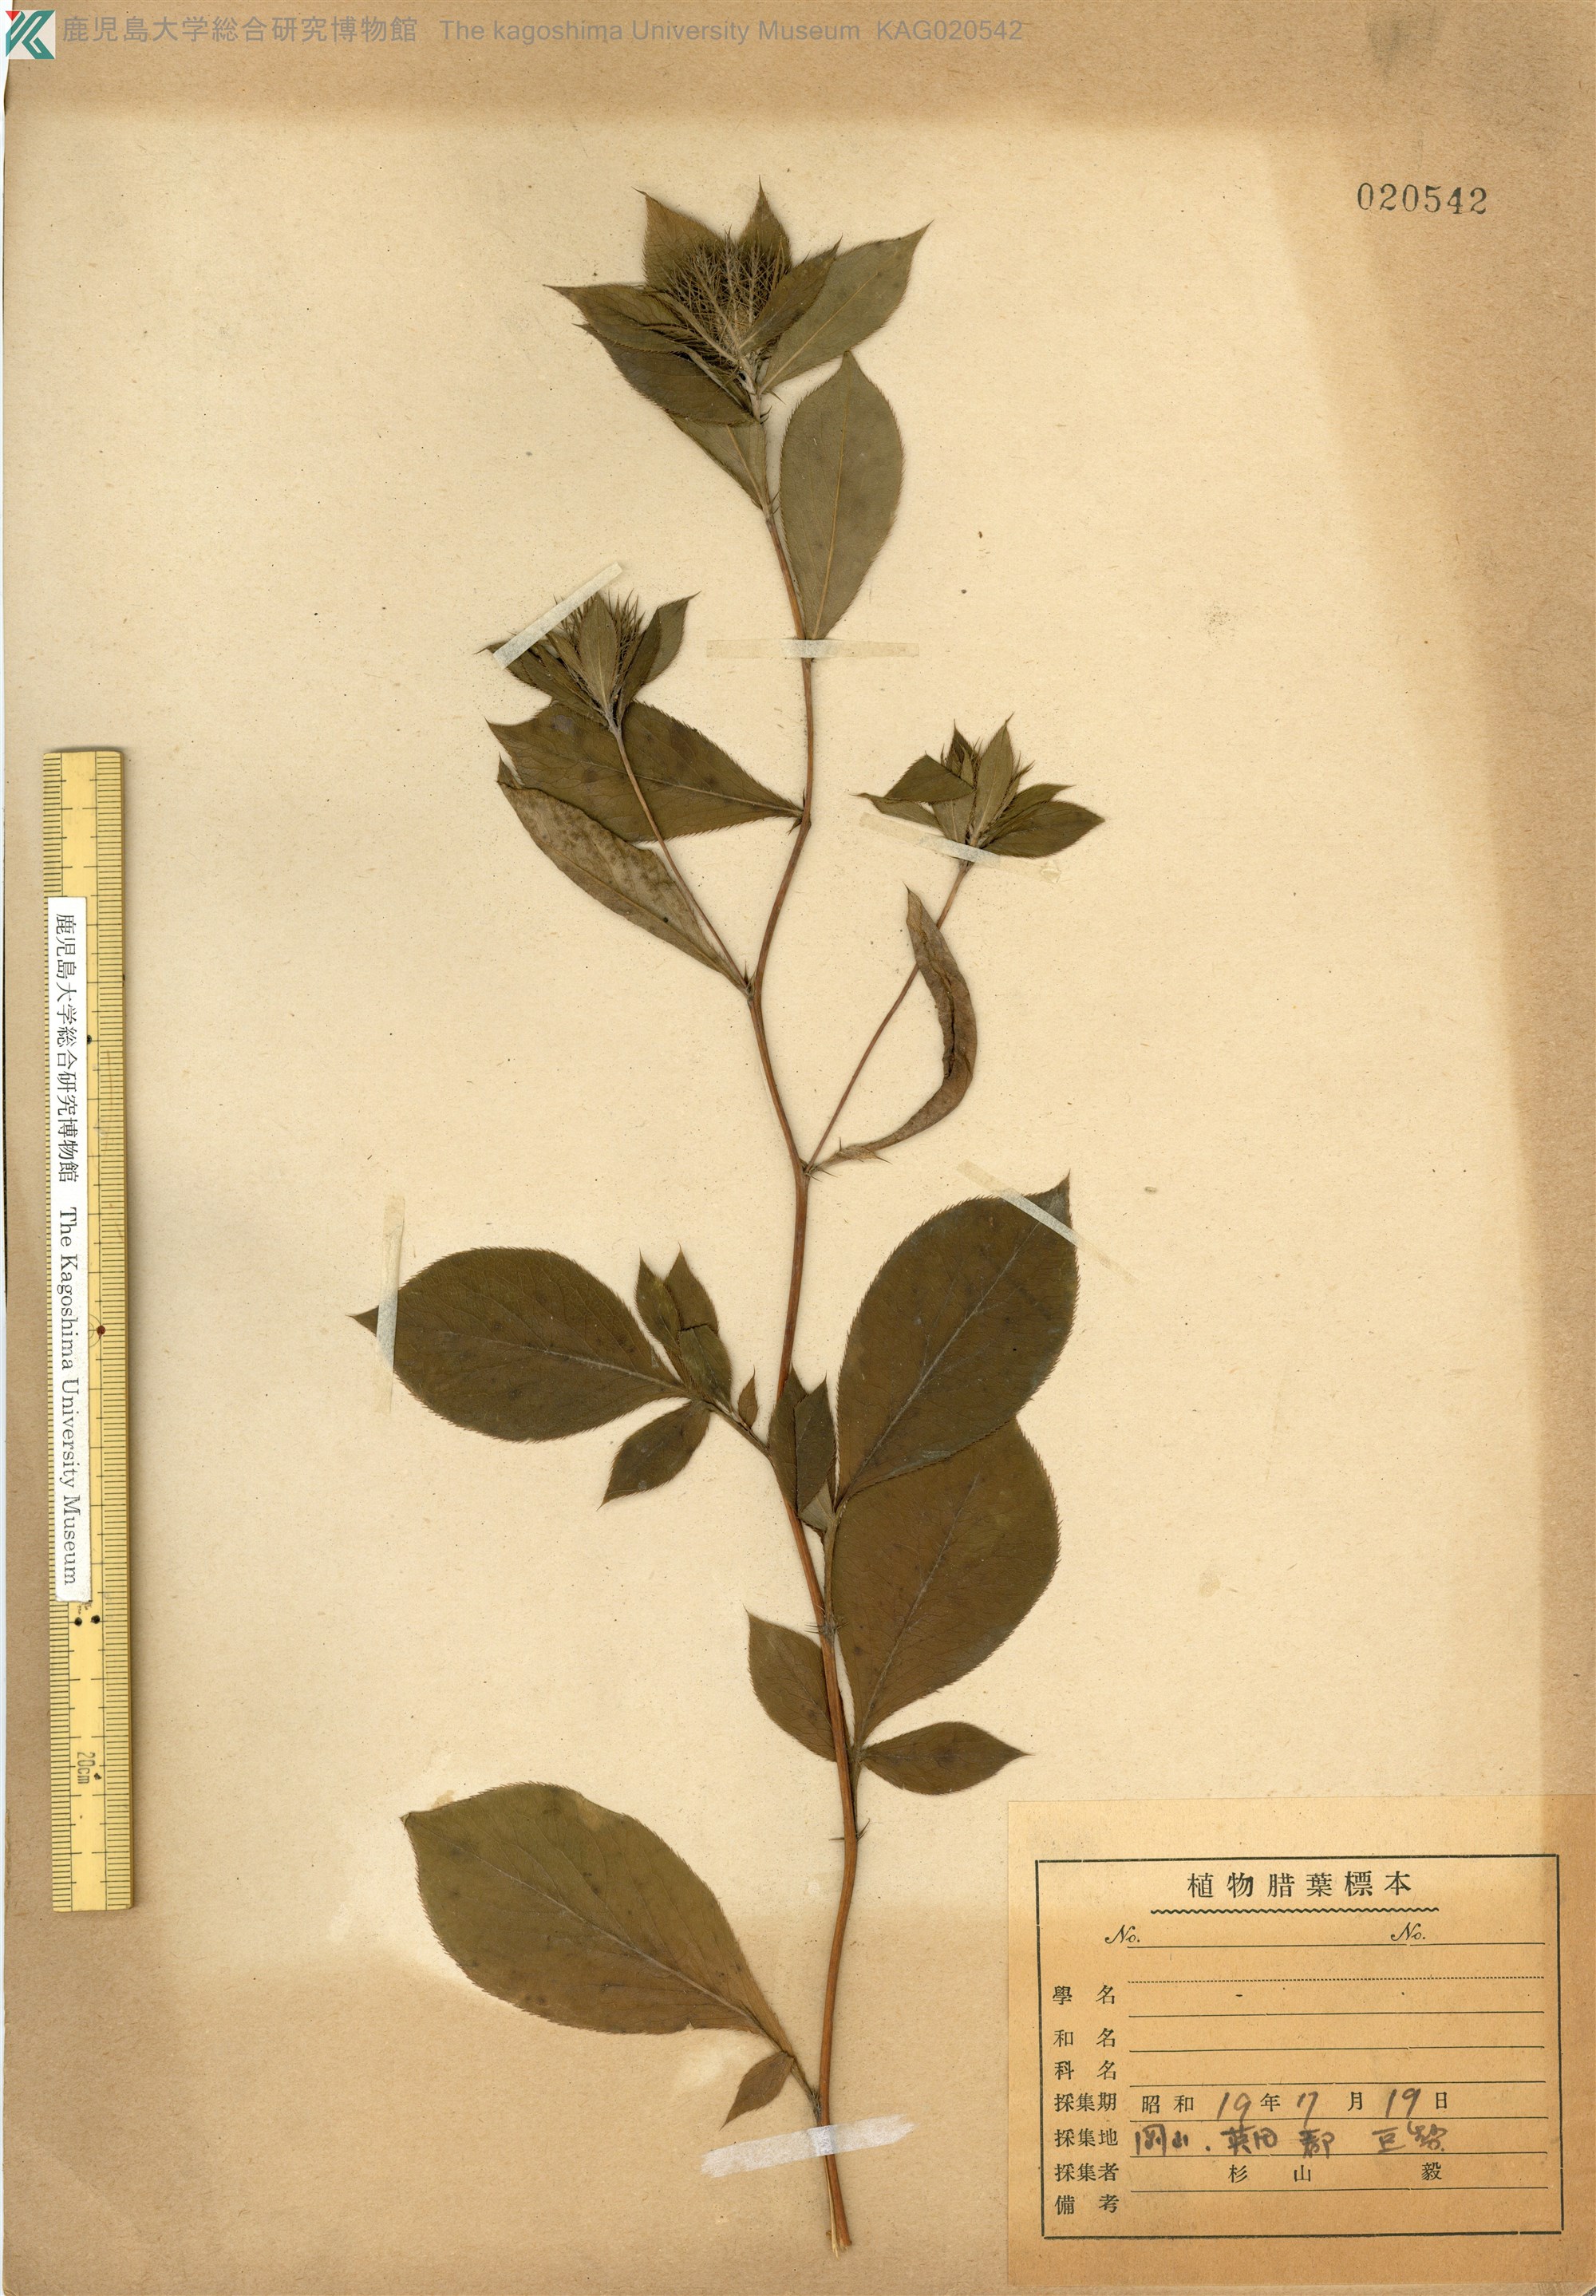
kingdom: Plantae
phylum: Tracheophyta
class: Magnoliopsida
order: Asterales
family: Asteraceae
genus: Atractylodes
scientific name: Atractylodes lancea
